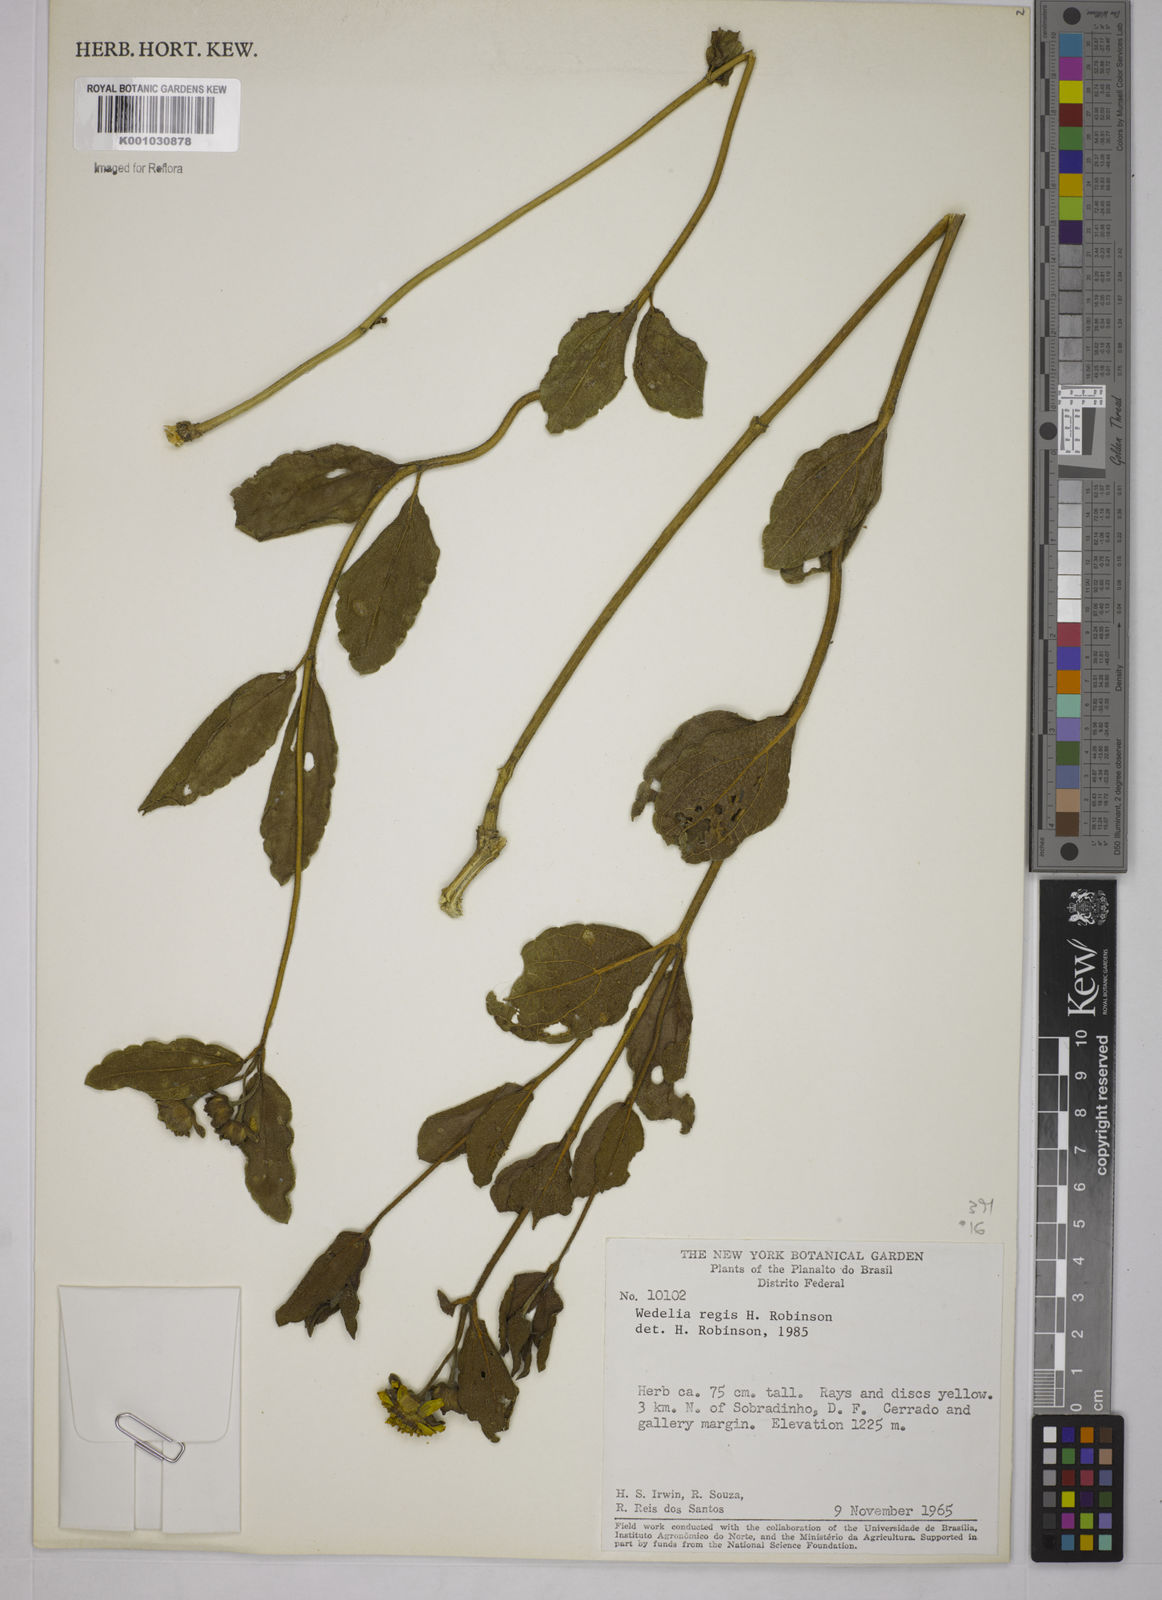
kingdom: Plantae
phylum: Tracheophyta
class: Magnoliopsida
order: Asterales
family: Asteraceae
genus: Wedelia
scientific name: Wedelia regis
